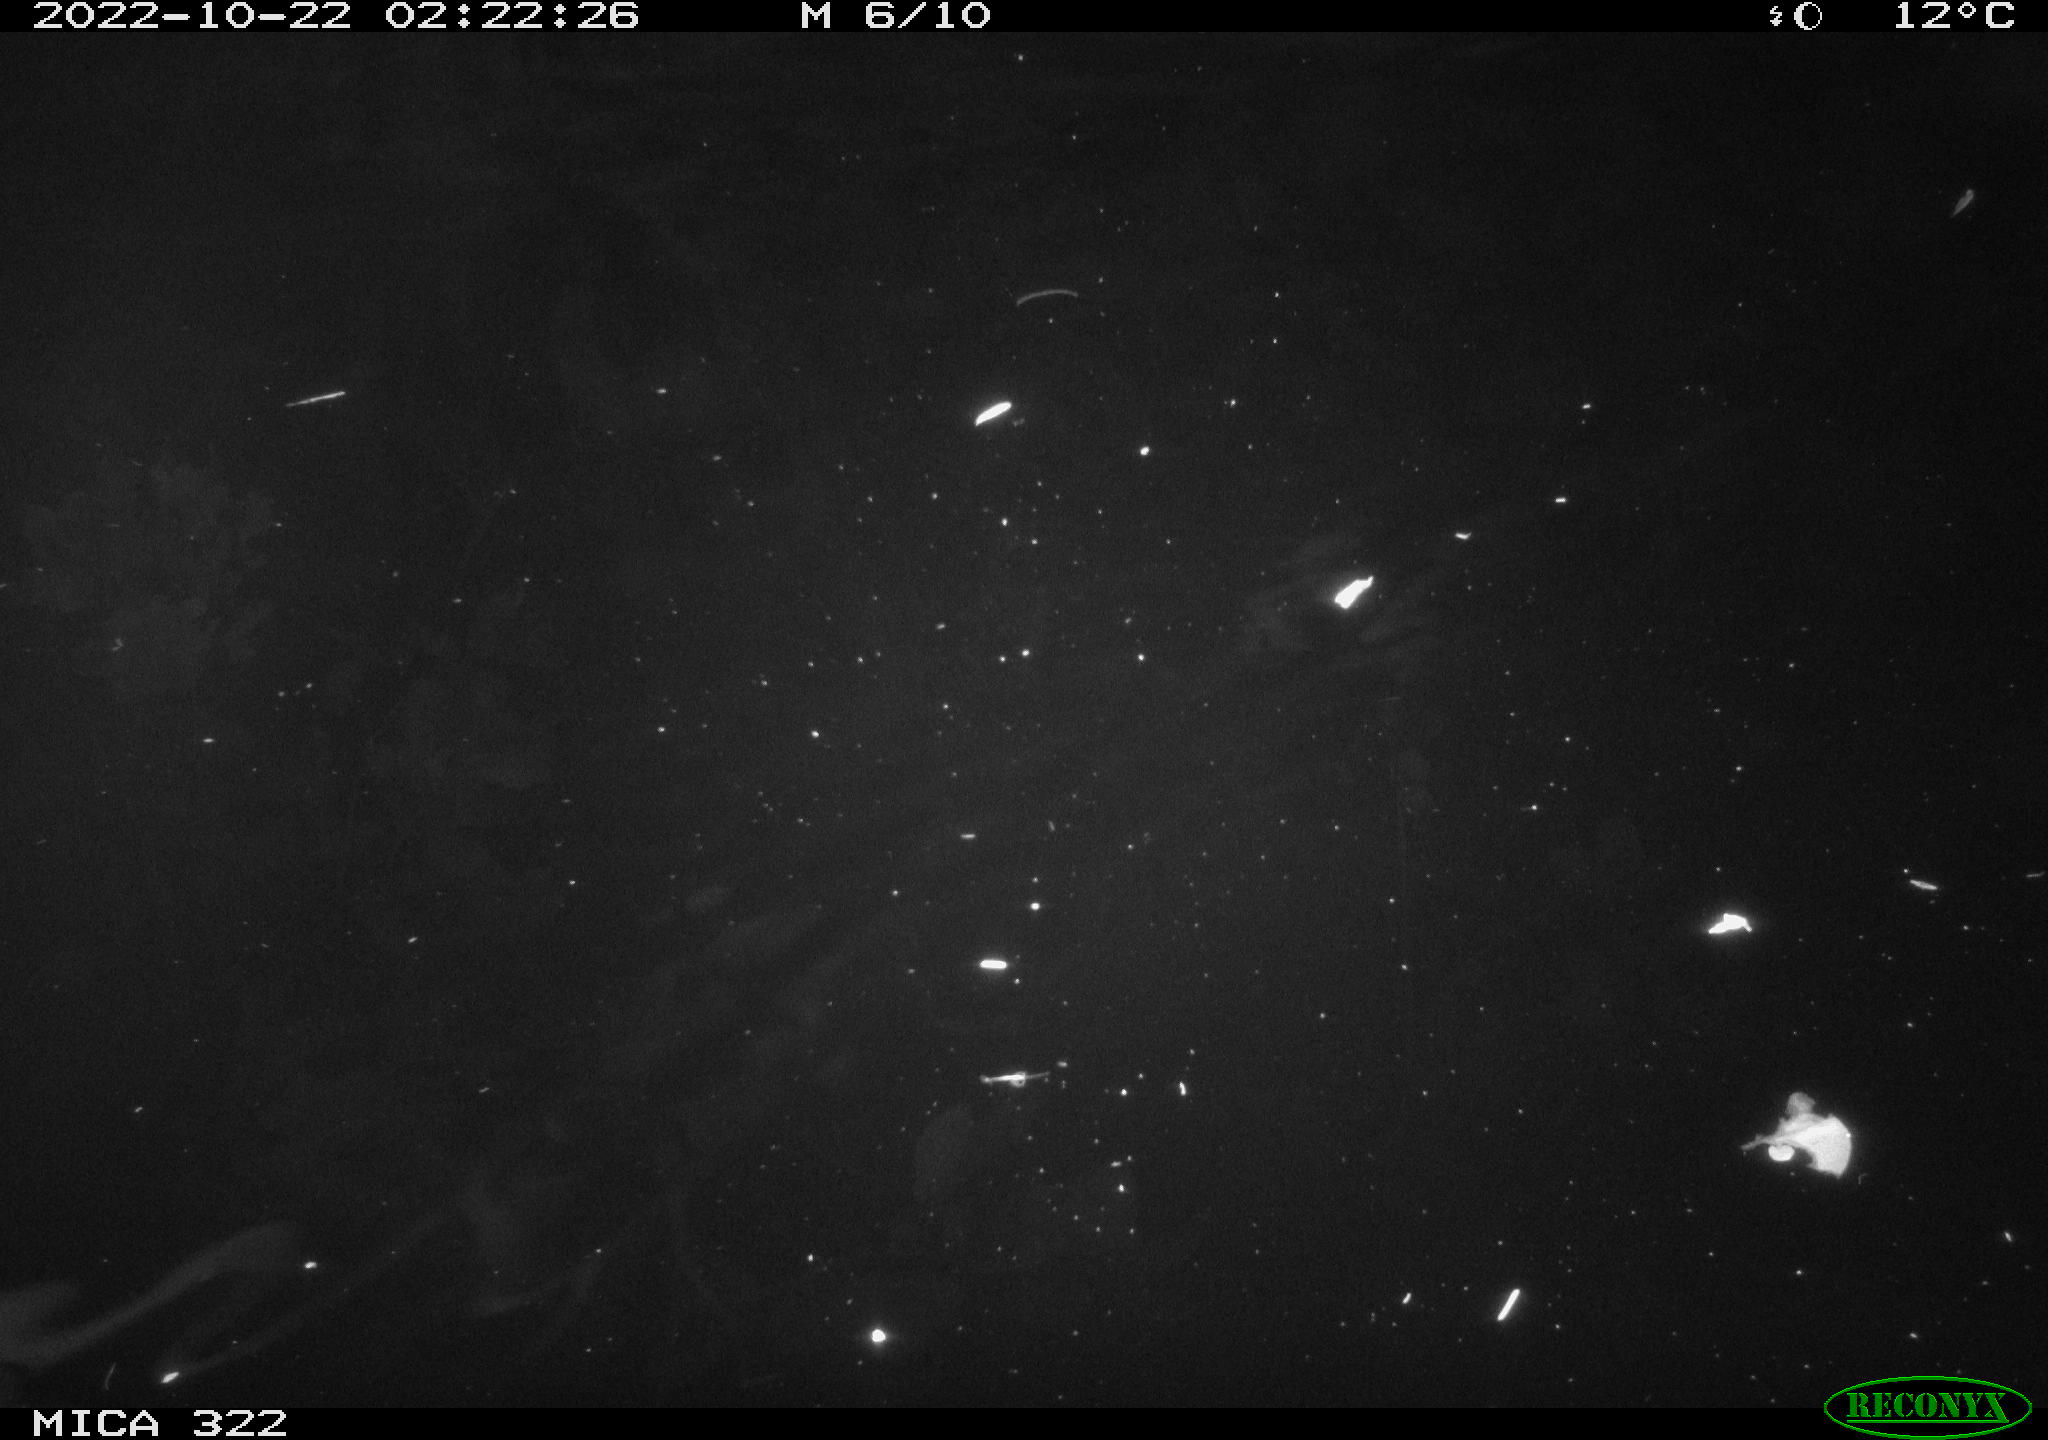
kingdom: Animalia
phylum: Chordata
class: Mammalia
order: Rodentia
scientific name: Rodentia
